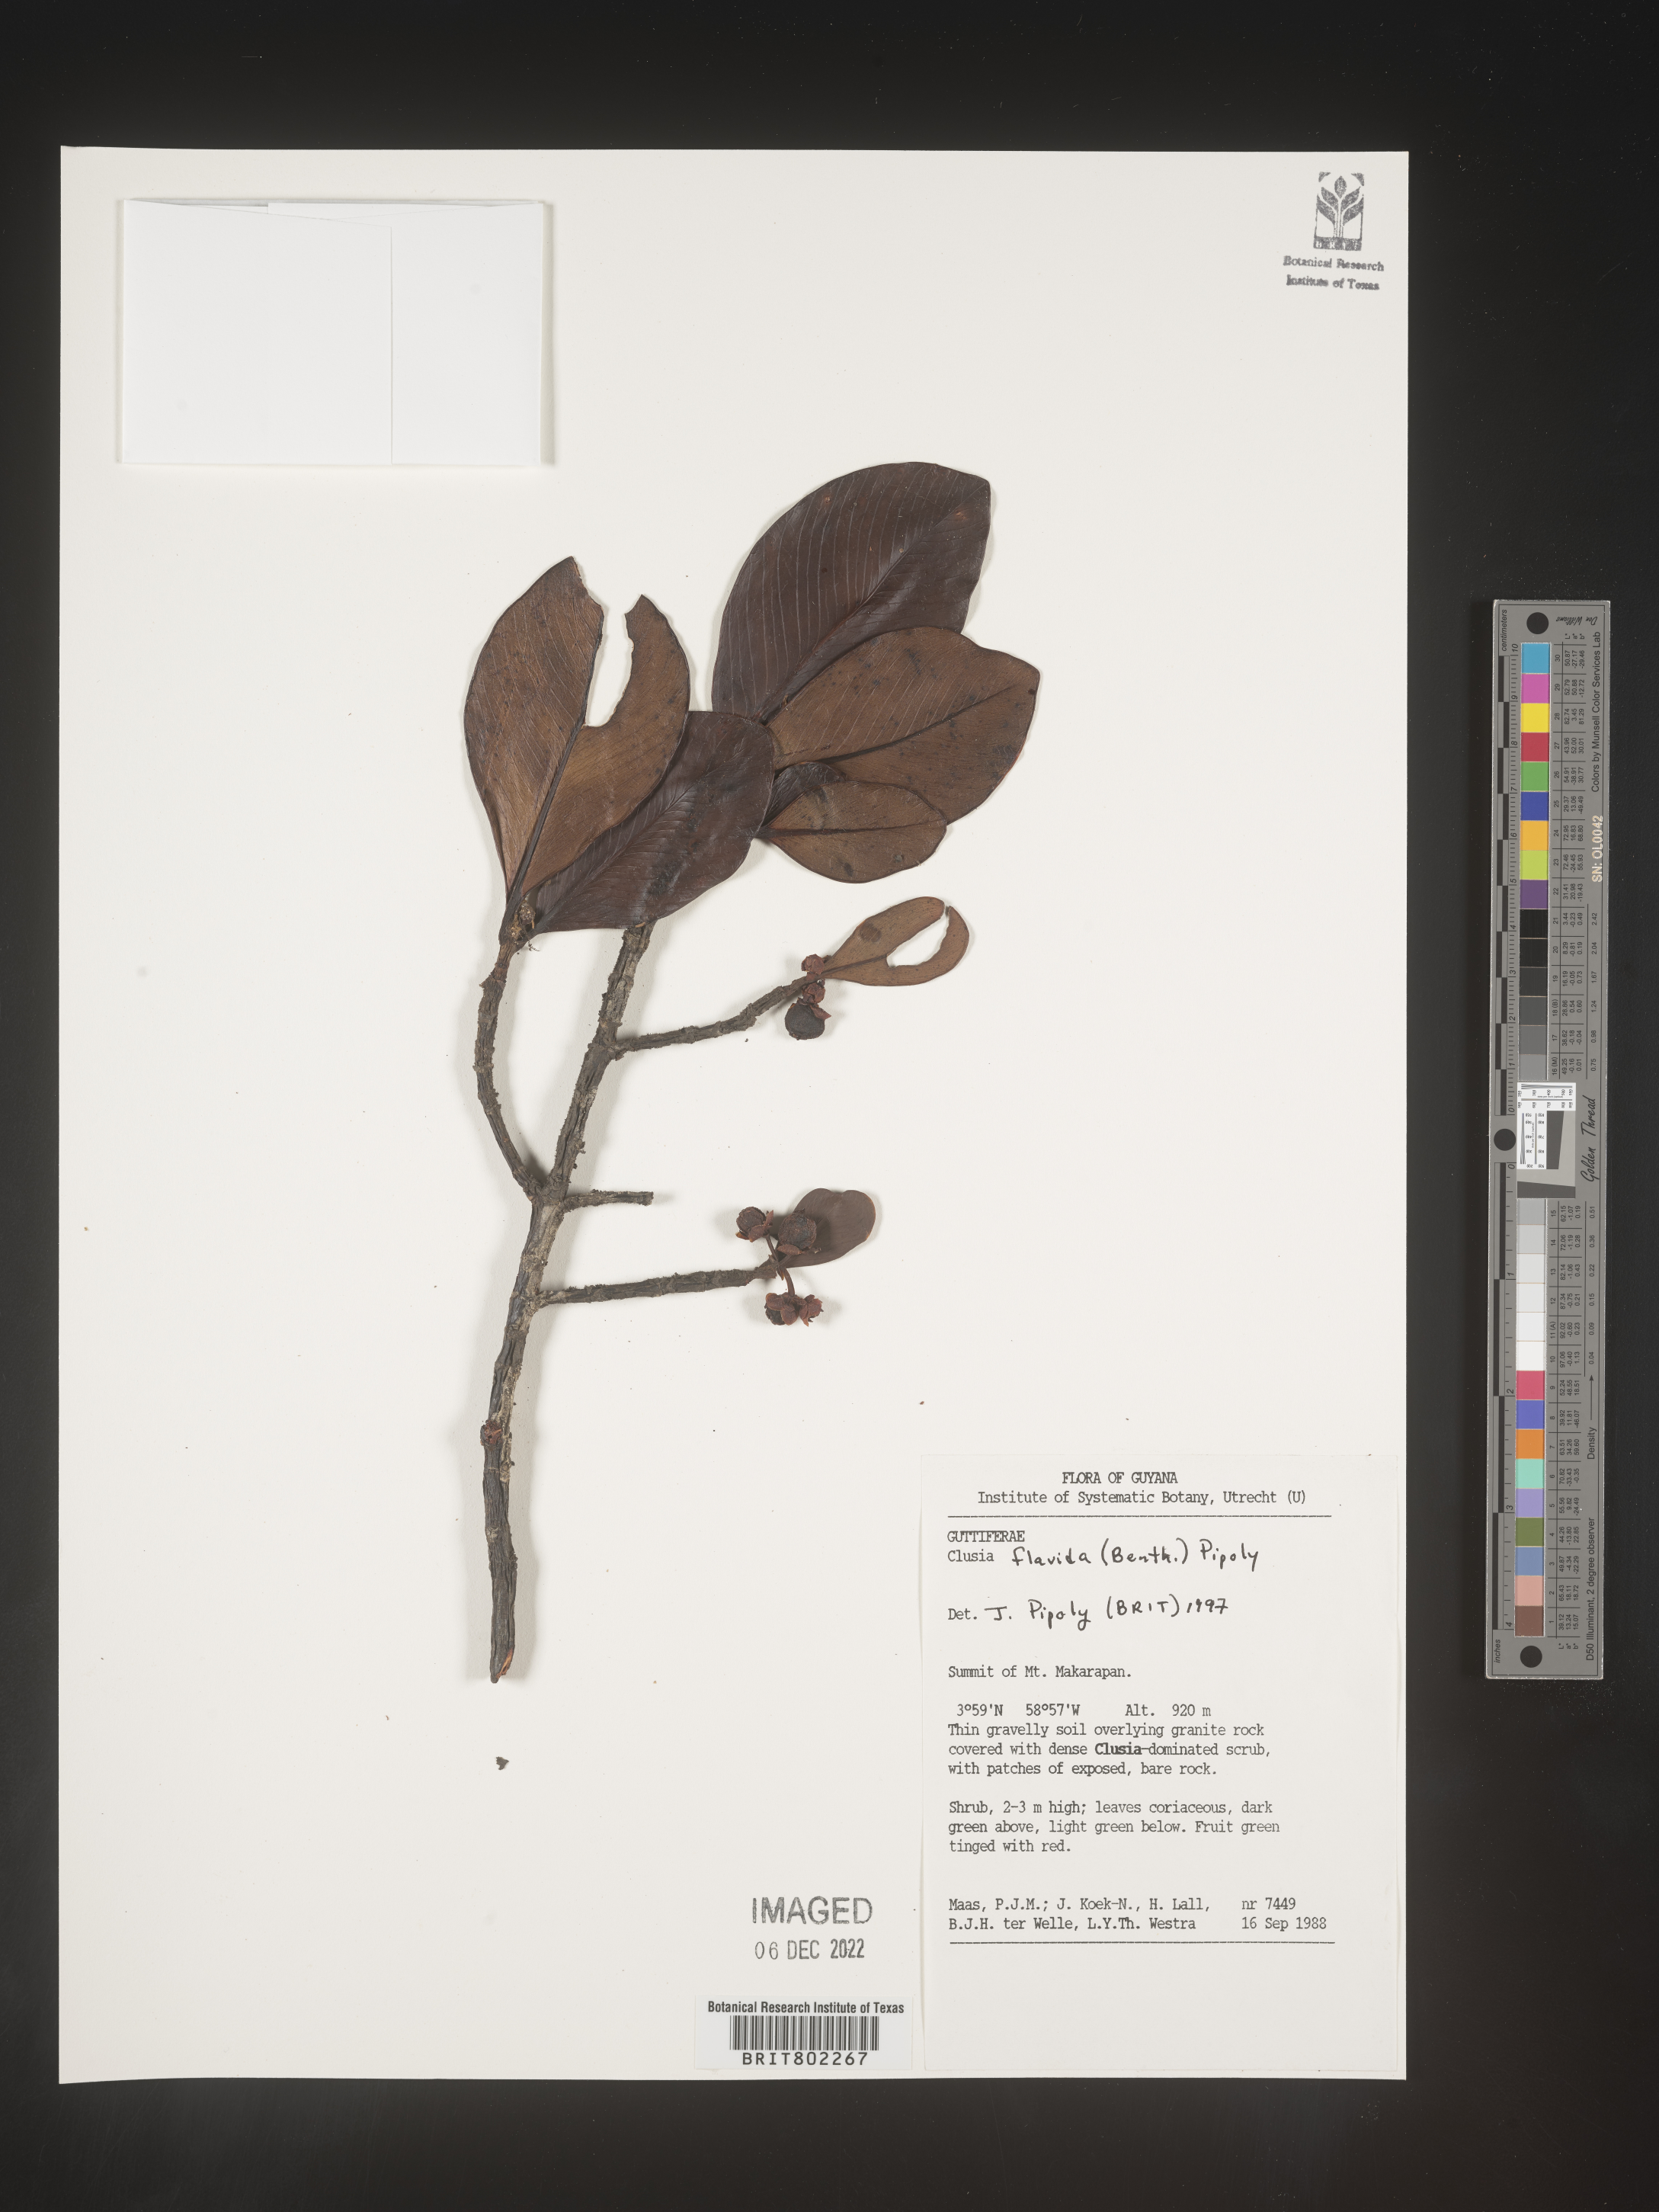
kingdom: Plantae
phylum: Tracheophyta
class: Magnoliopsida
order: Malpighiales
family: Clusiaceae
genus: Clusia
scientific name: Clusia flavida
